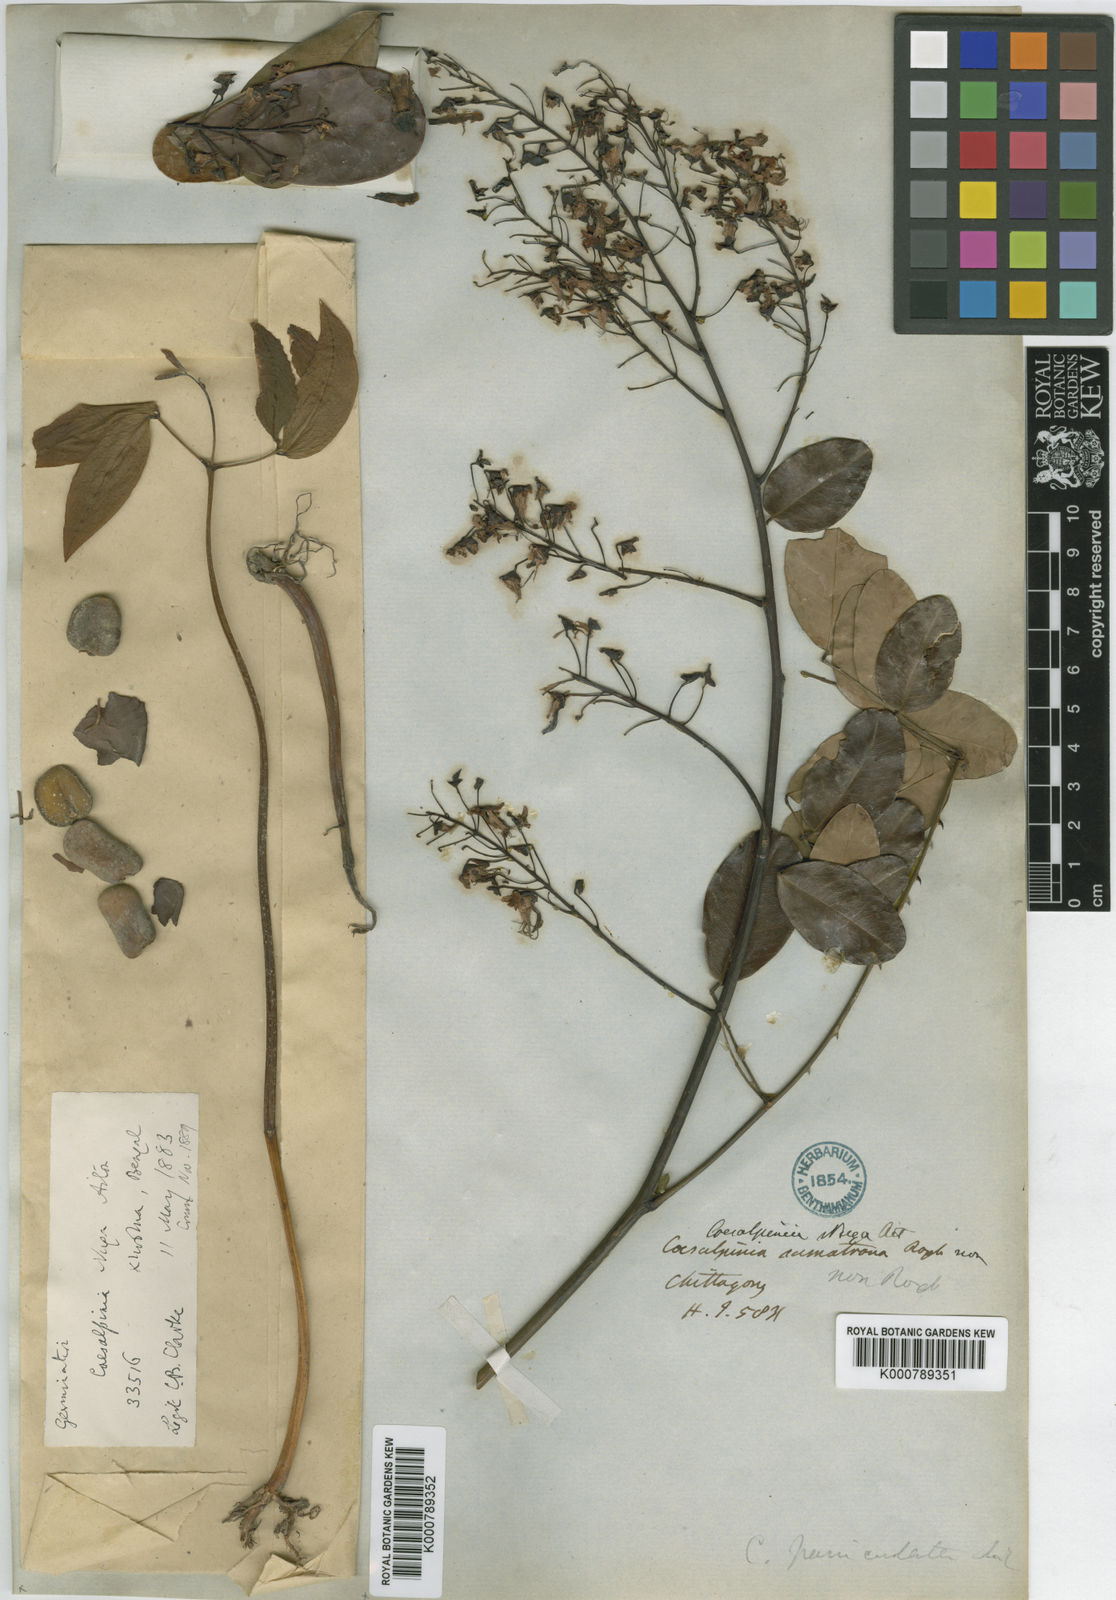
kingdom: Plantae
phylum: Tracheophyta
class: Magnoliopsida
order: Fabales
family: Fabaceae
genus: Caesalpinia
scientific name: Caesalpinia Ticanto crista
